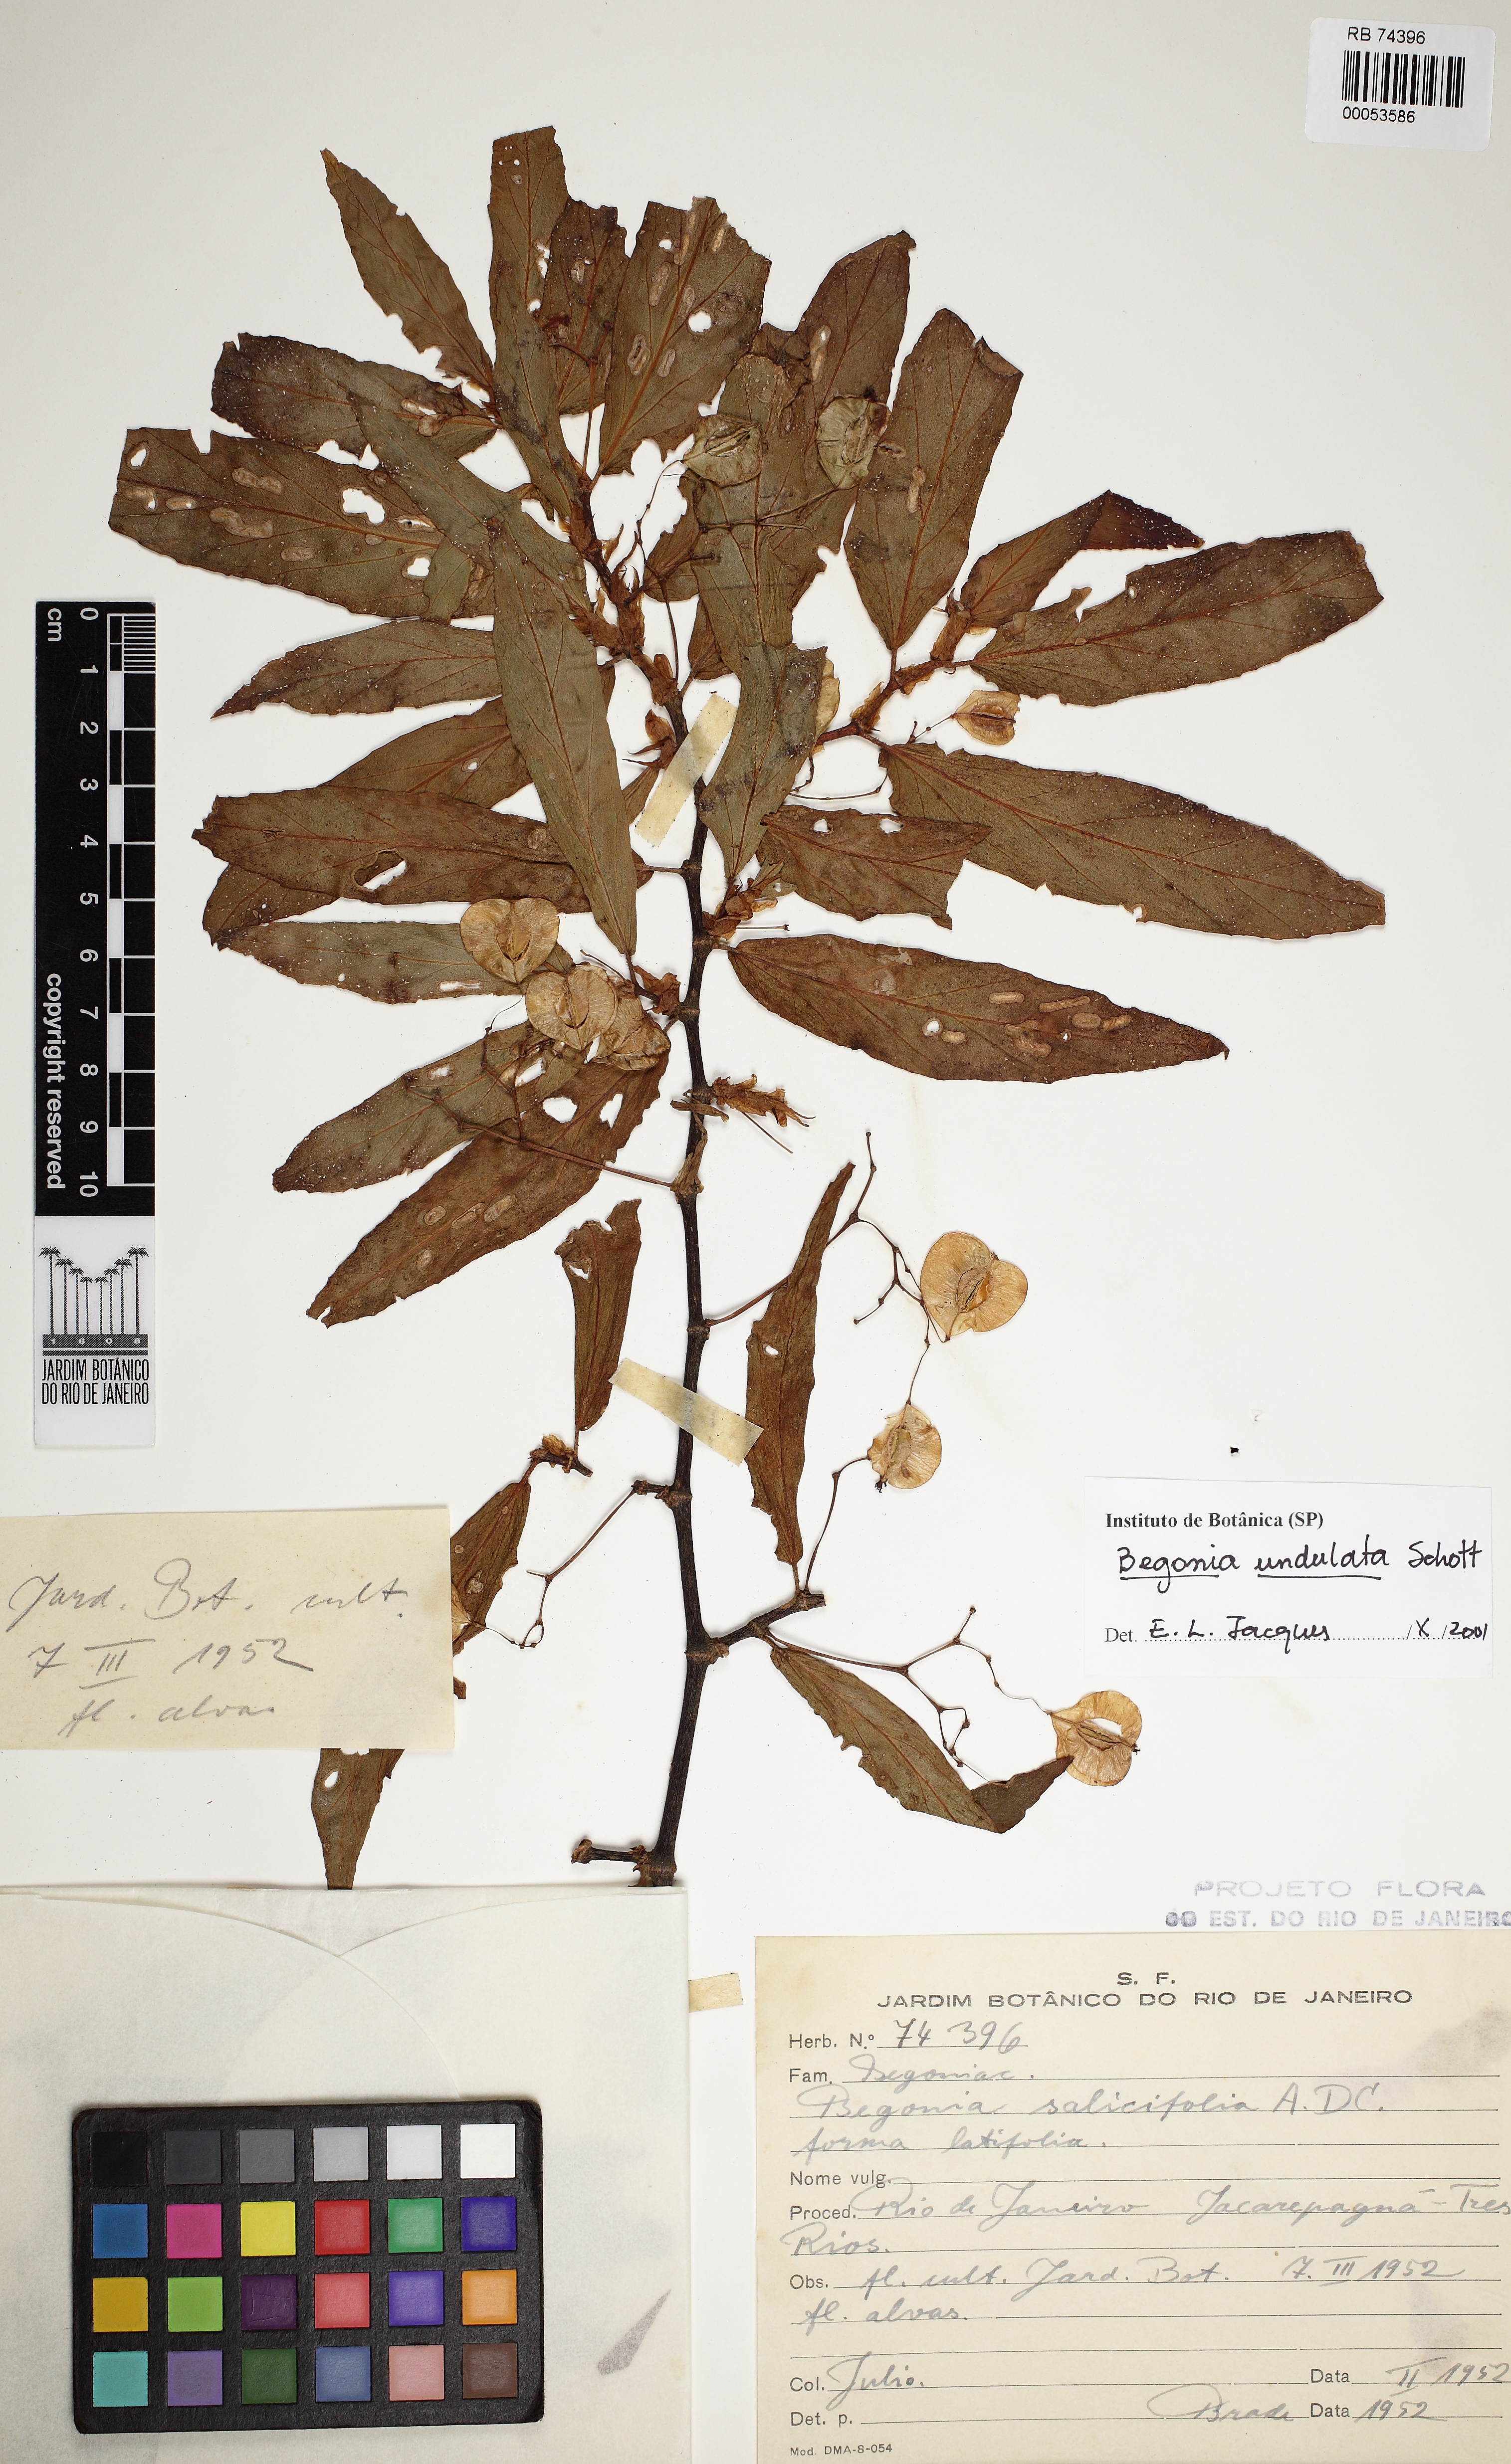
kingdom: Plantae
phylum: Tracheophyta
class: Magnoliopsida
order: Cucurbitales
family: Begoniaceae
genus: Begonia
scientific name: Begonia undulata
